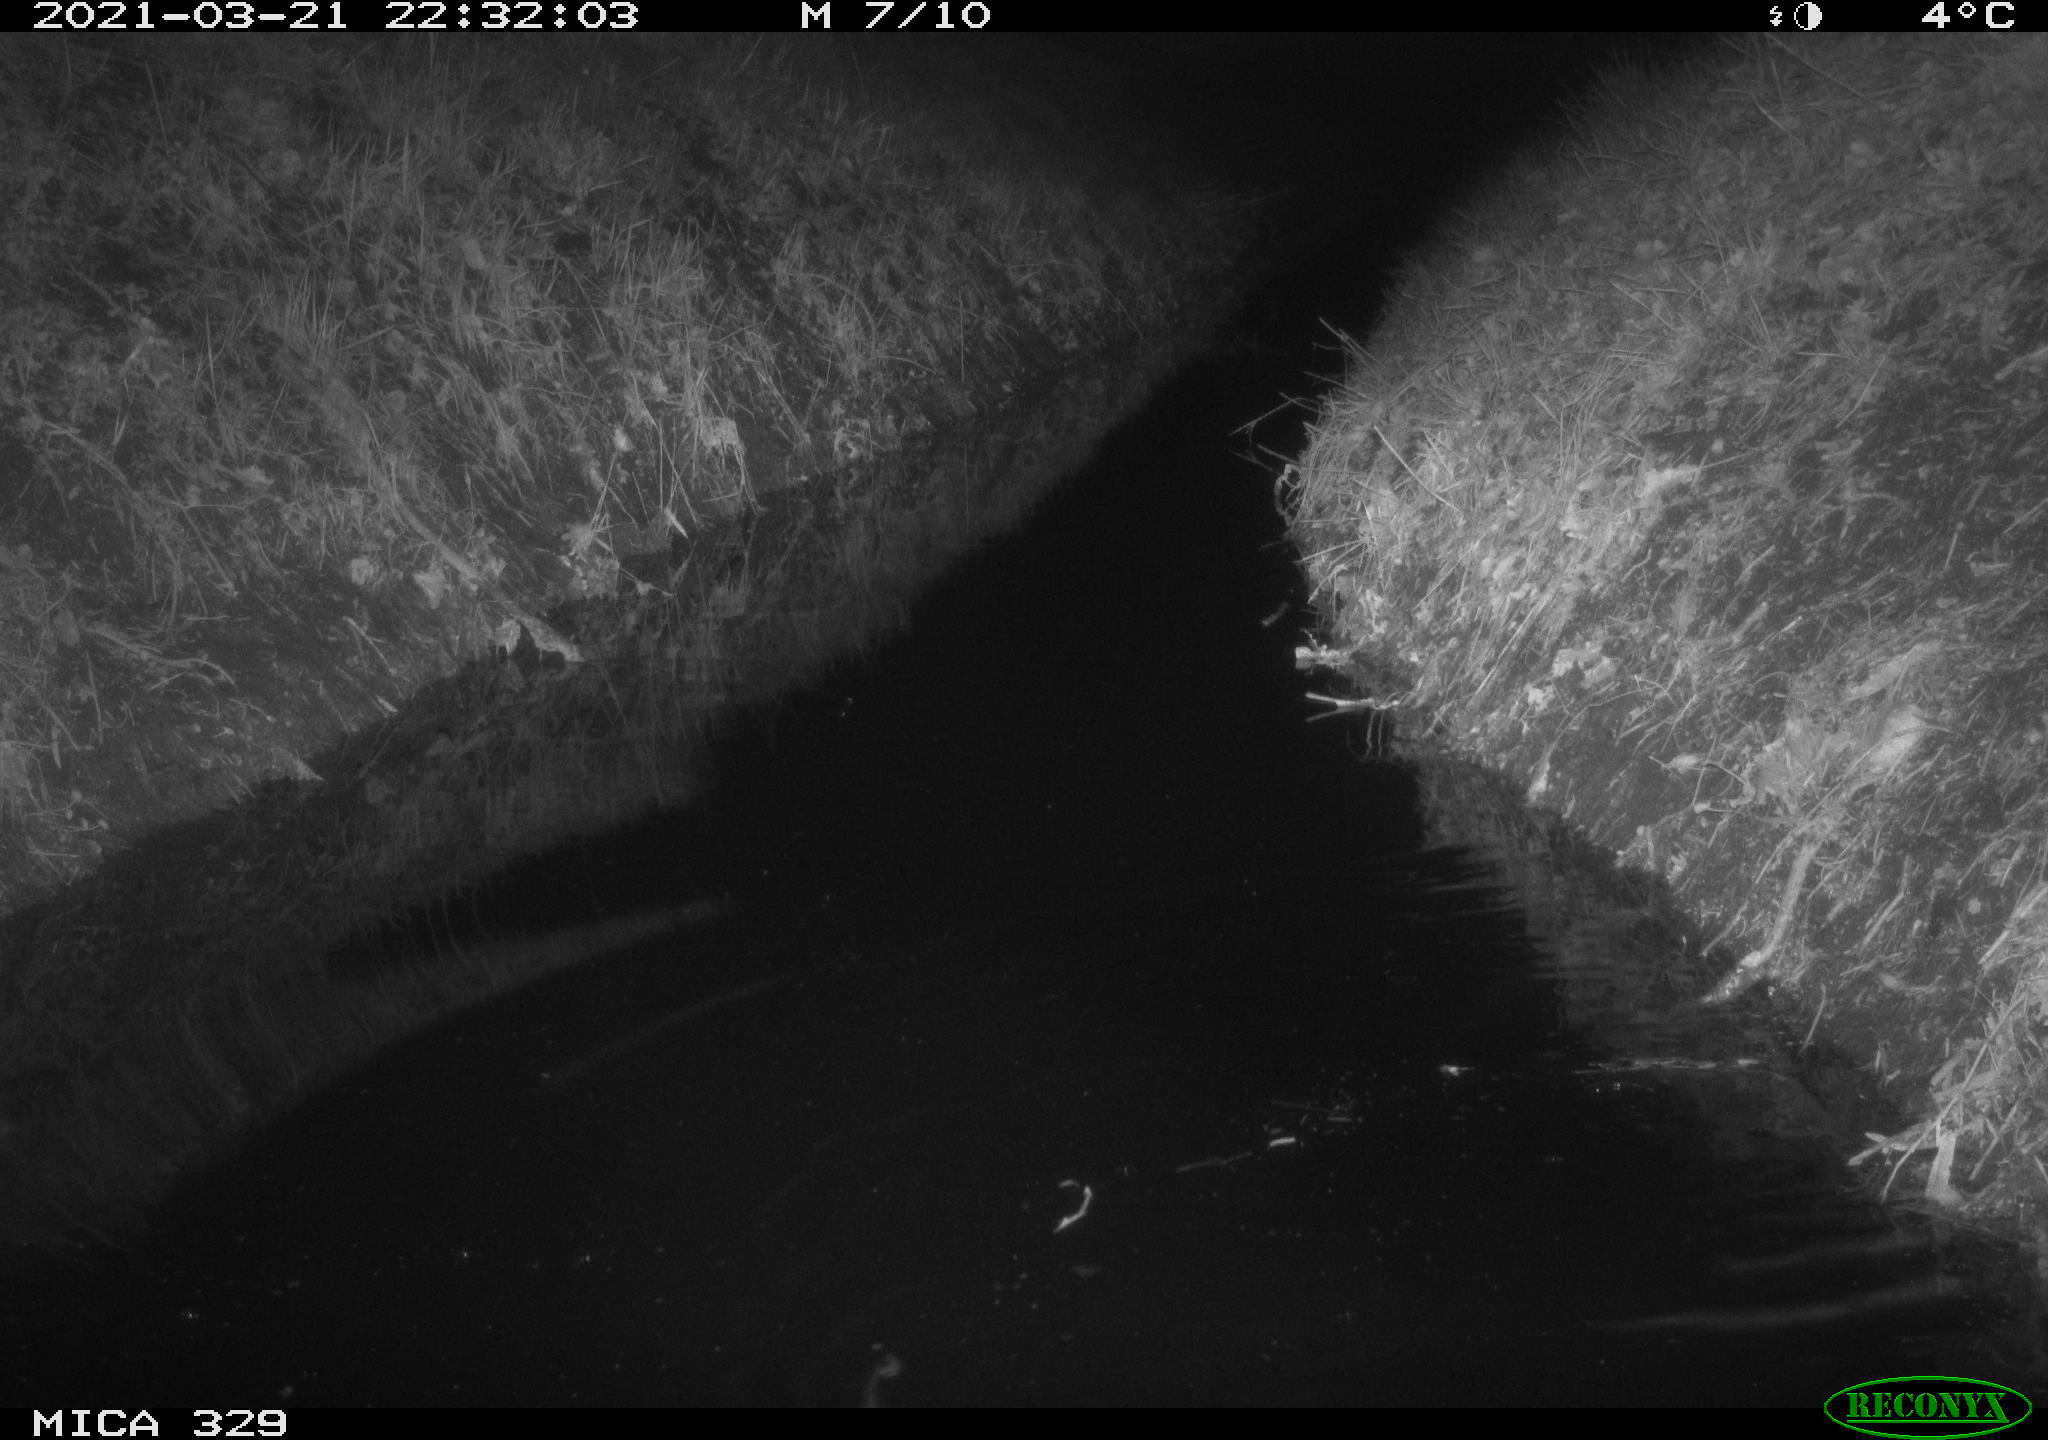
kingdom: Animalia
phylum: Chordata
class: Mammalia
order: Rodentia
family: Cricetidae
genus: Ondatra
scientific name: Ondatra zibethicus
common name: Muskrat
